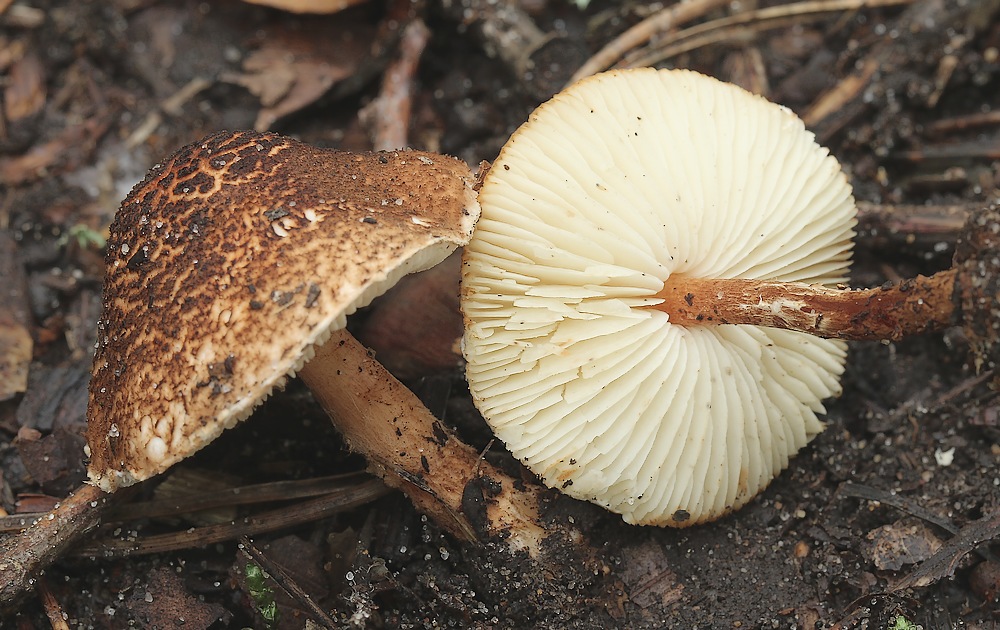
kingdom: Fungi
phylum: Basidiomycota
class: Agaricomycetes
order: Agaricales
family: Agaricaceae
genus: Lepiota
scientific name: Lepiota castanea
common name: kastaniebrun parasolhat
